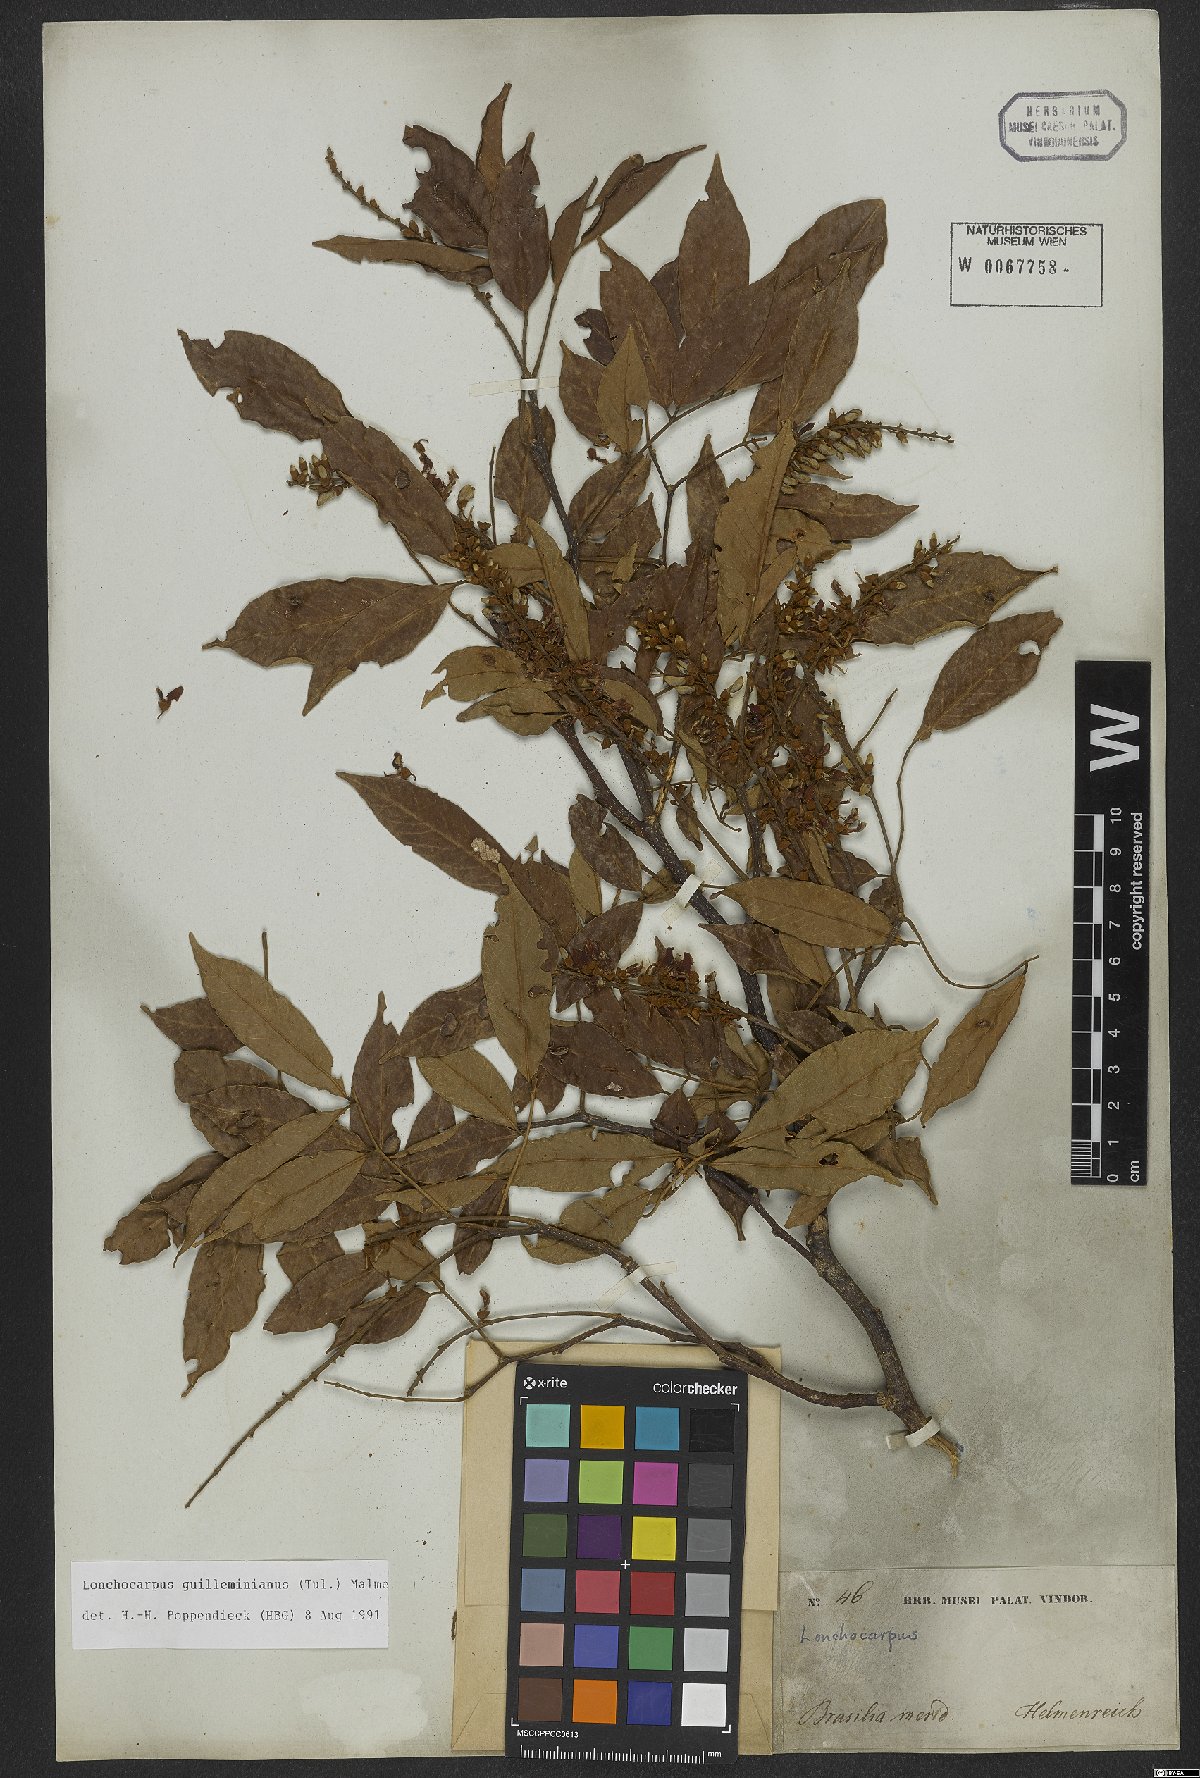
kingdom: Plantae
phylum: Tracheophyta
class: Magnoliopsida
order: Fabales
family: Fabaceae
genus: Lonchocarpus
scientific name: Lonchocarpus cultratus
